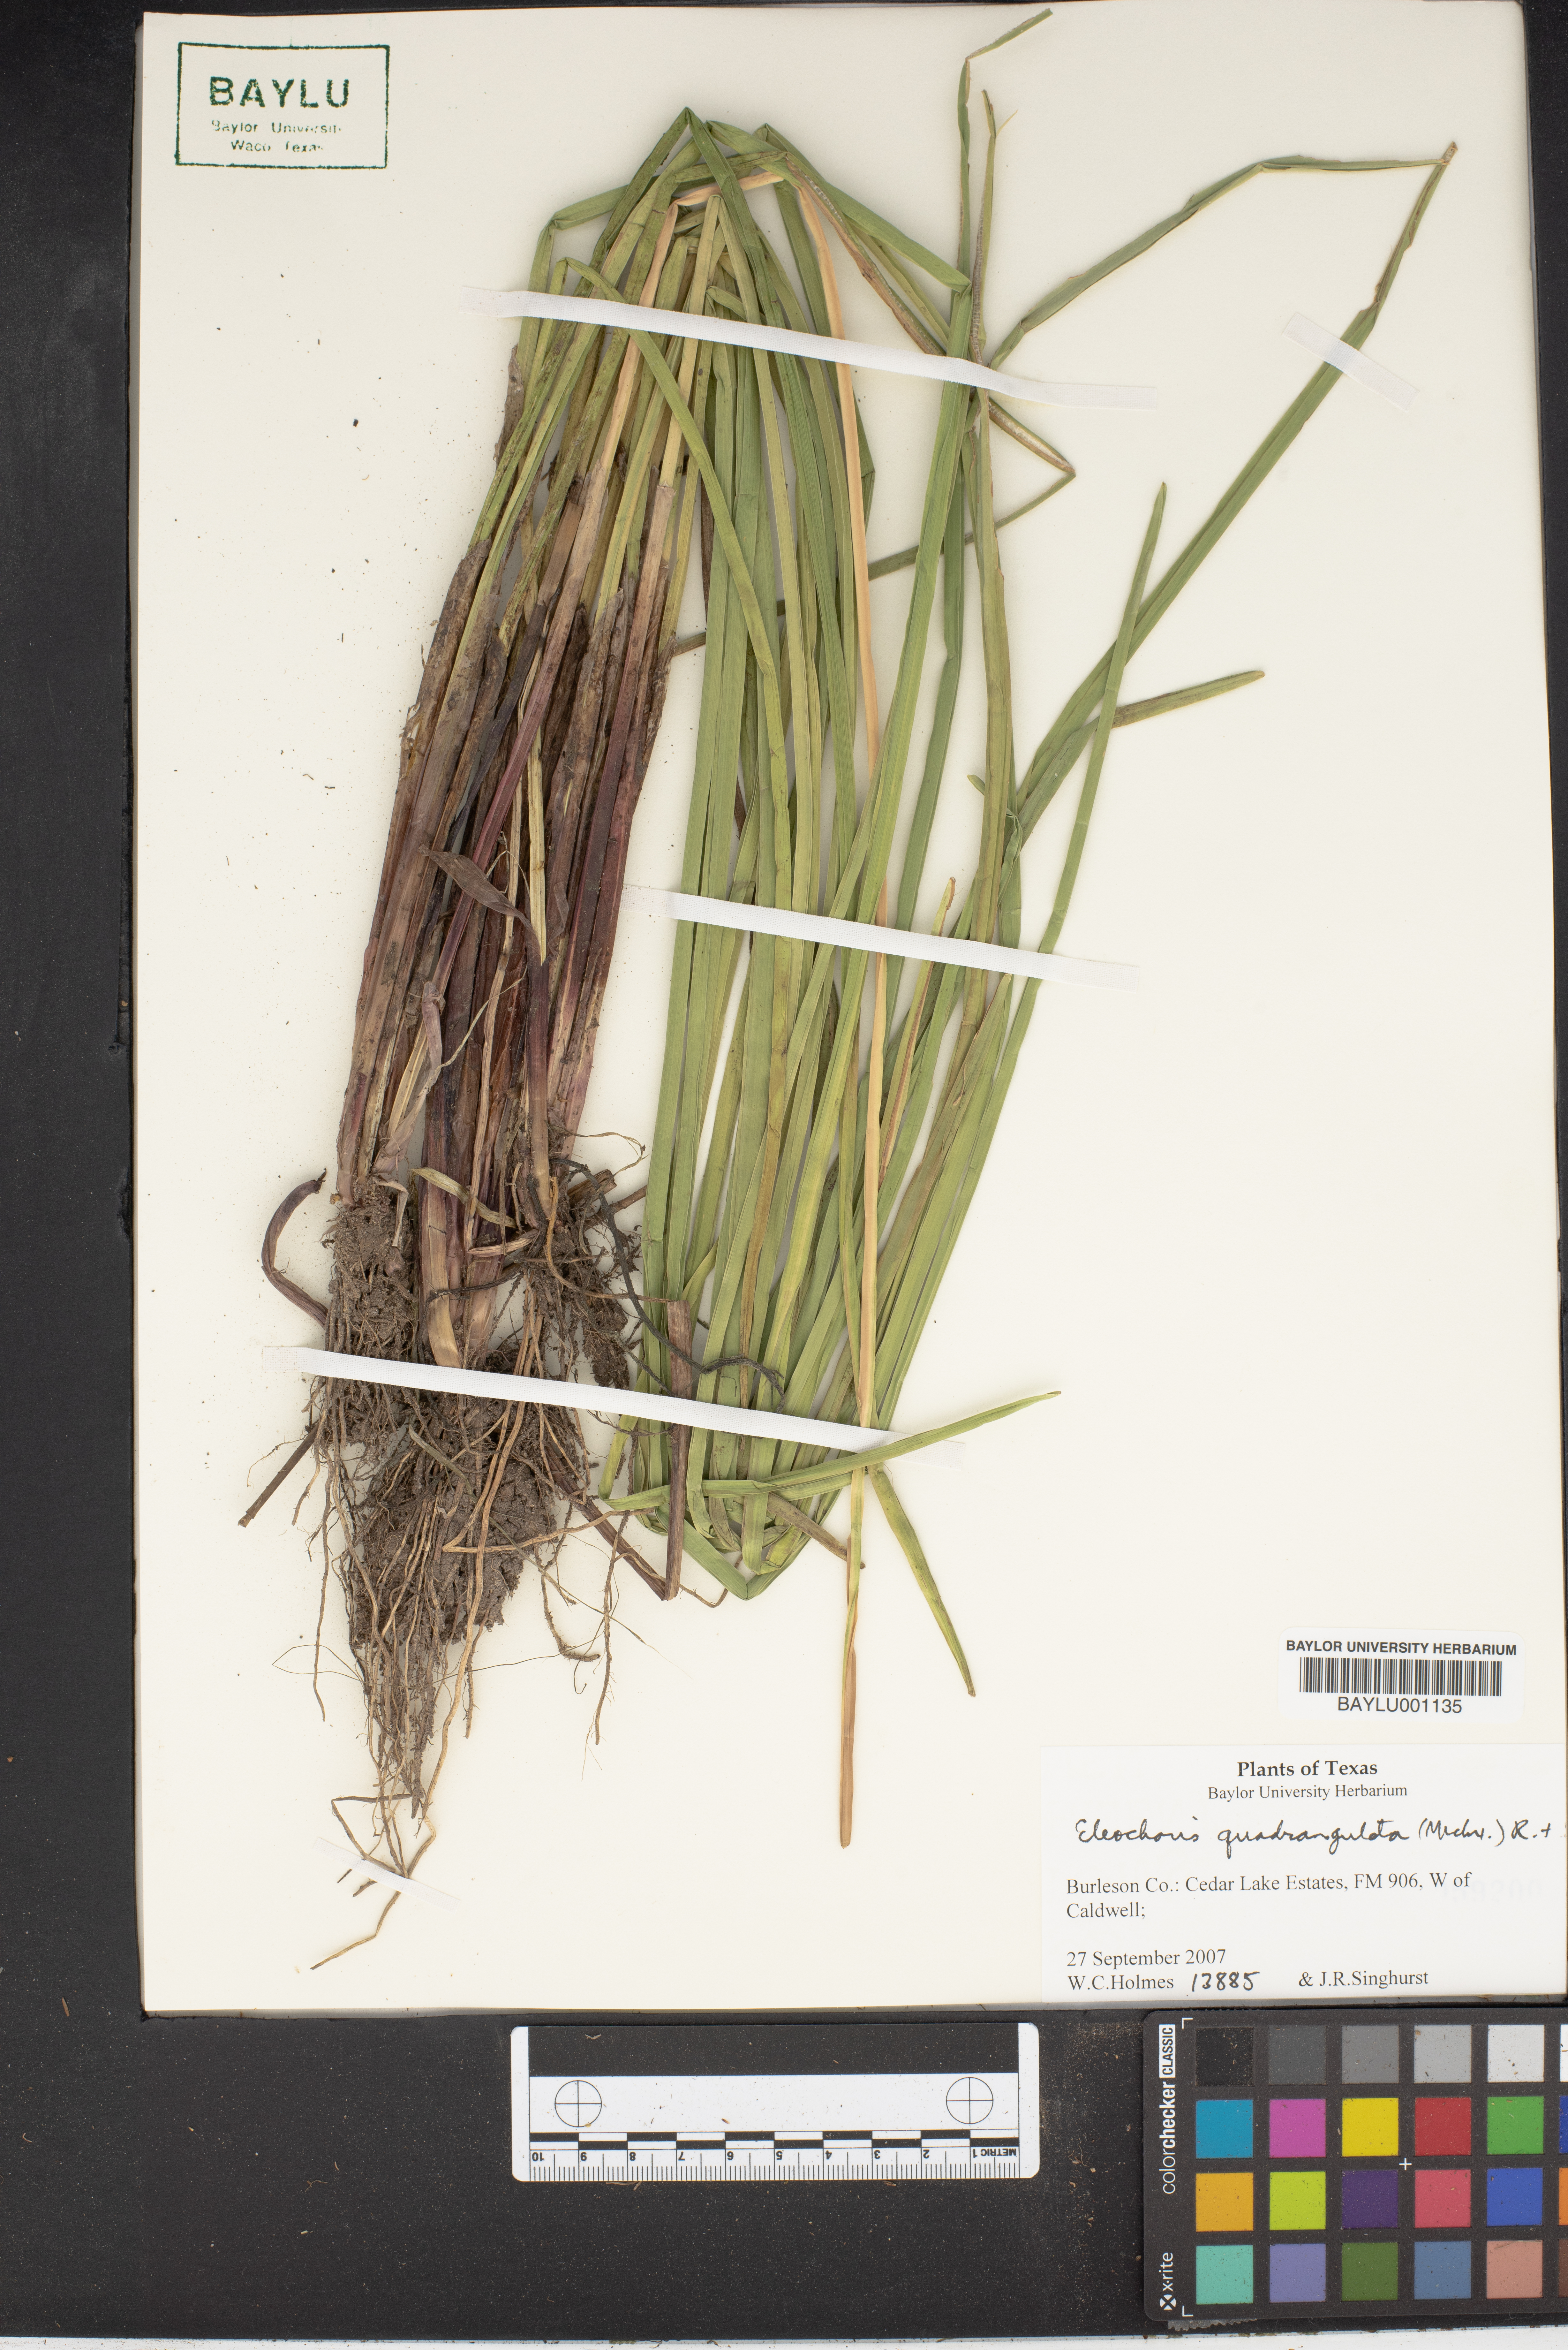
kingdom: Plantae
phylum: Tracheophyta
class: Liliopsida
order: Poales
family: Cyperaceae
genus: Eleocharis
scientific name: Eleocharis quadrangulata
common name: Square-stem spike-rush
